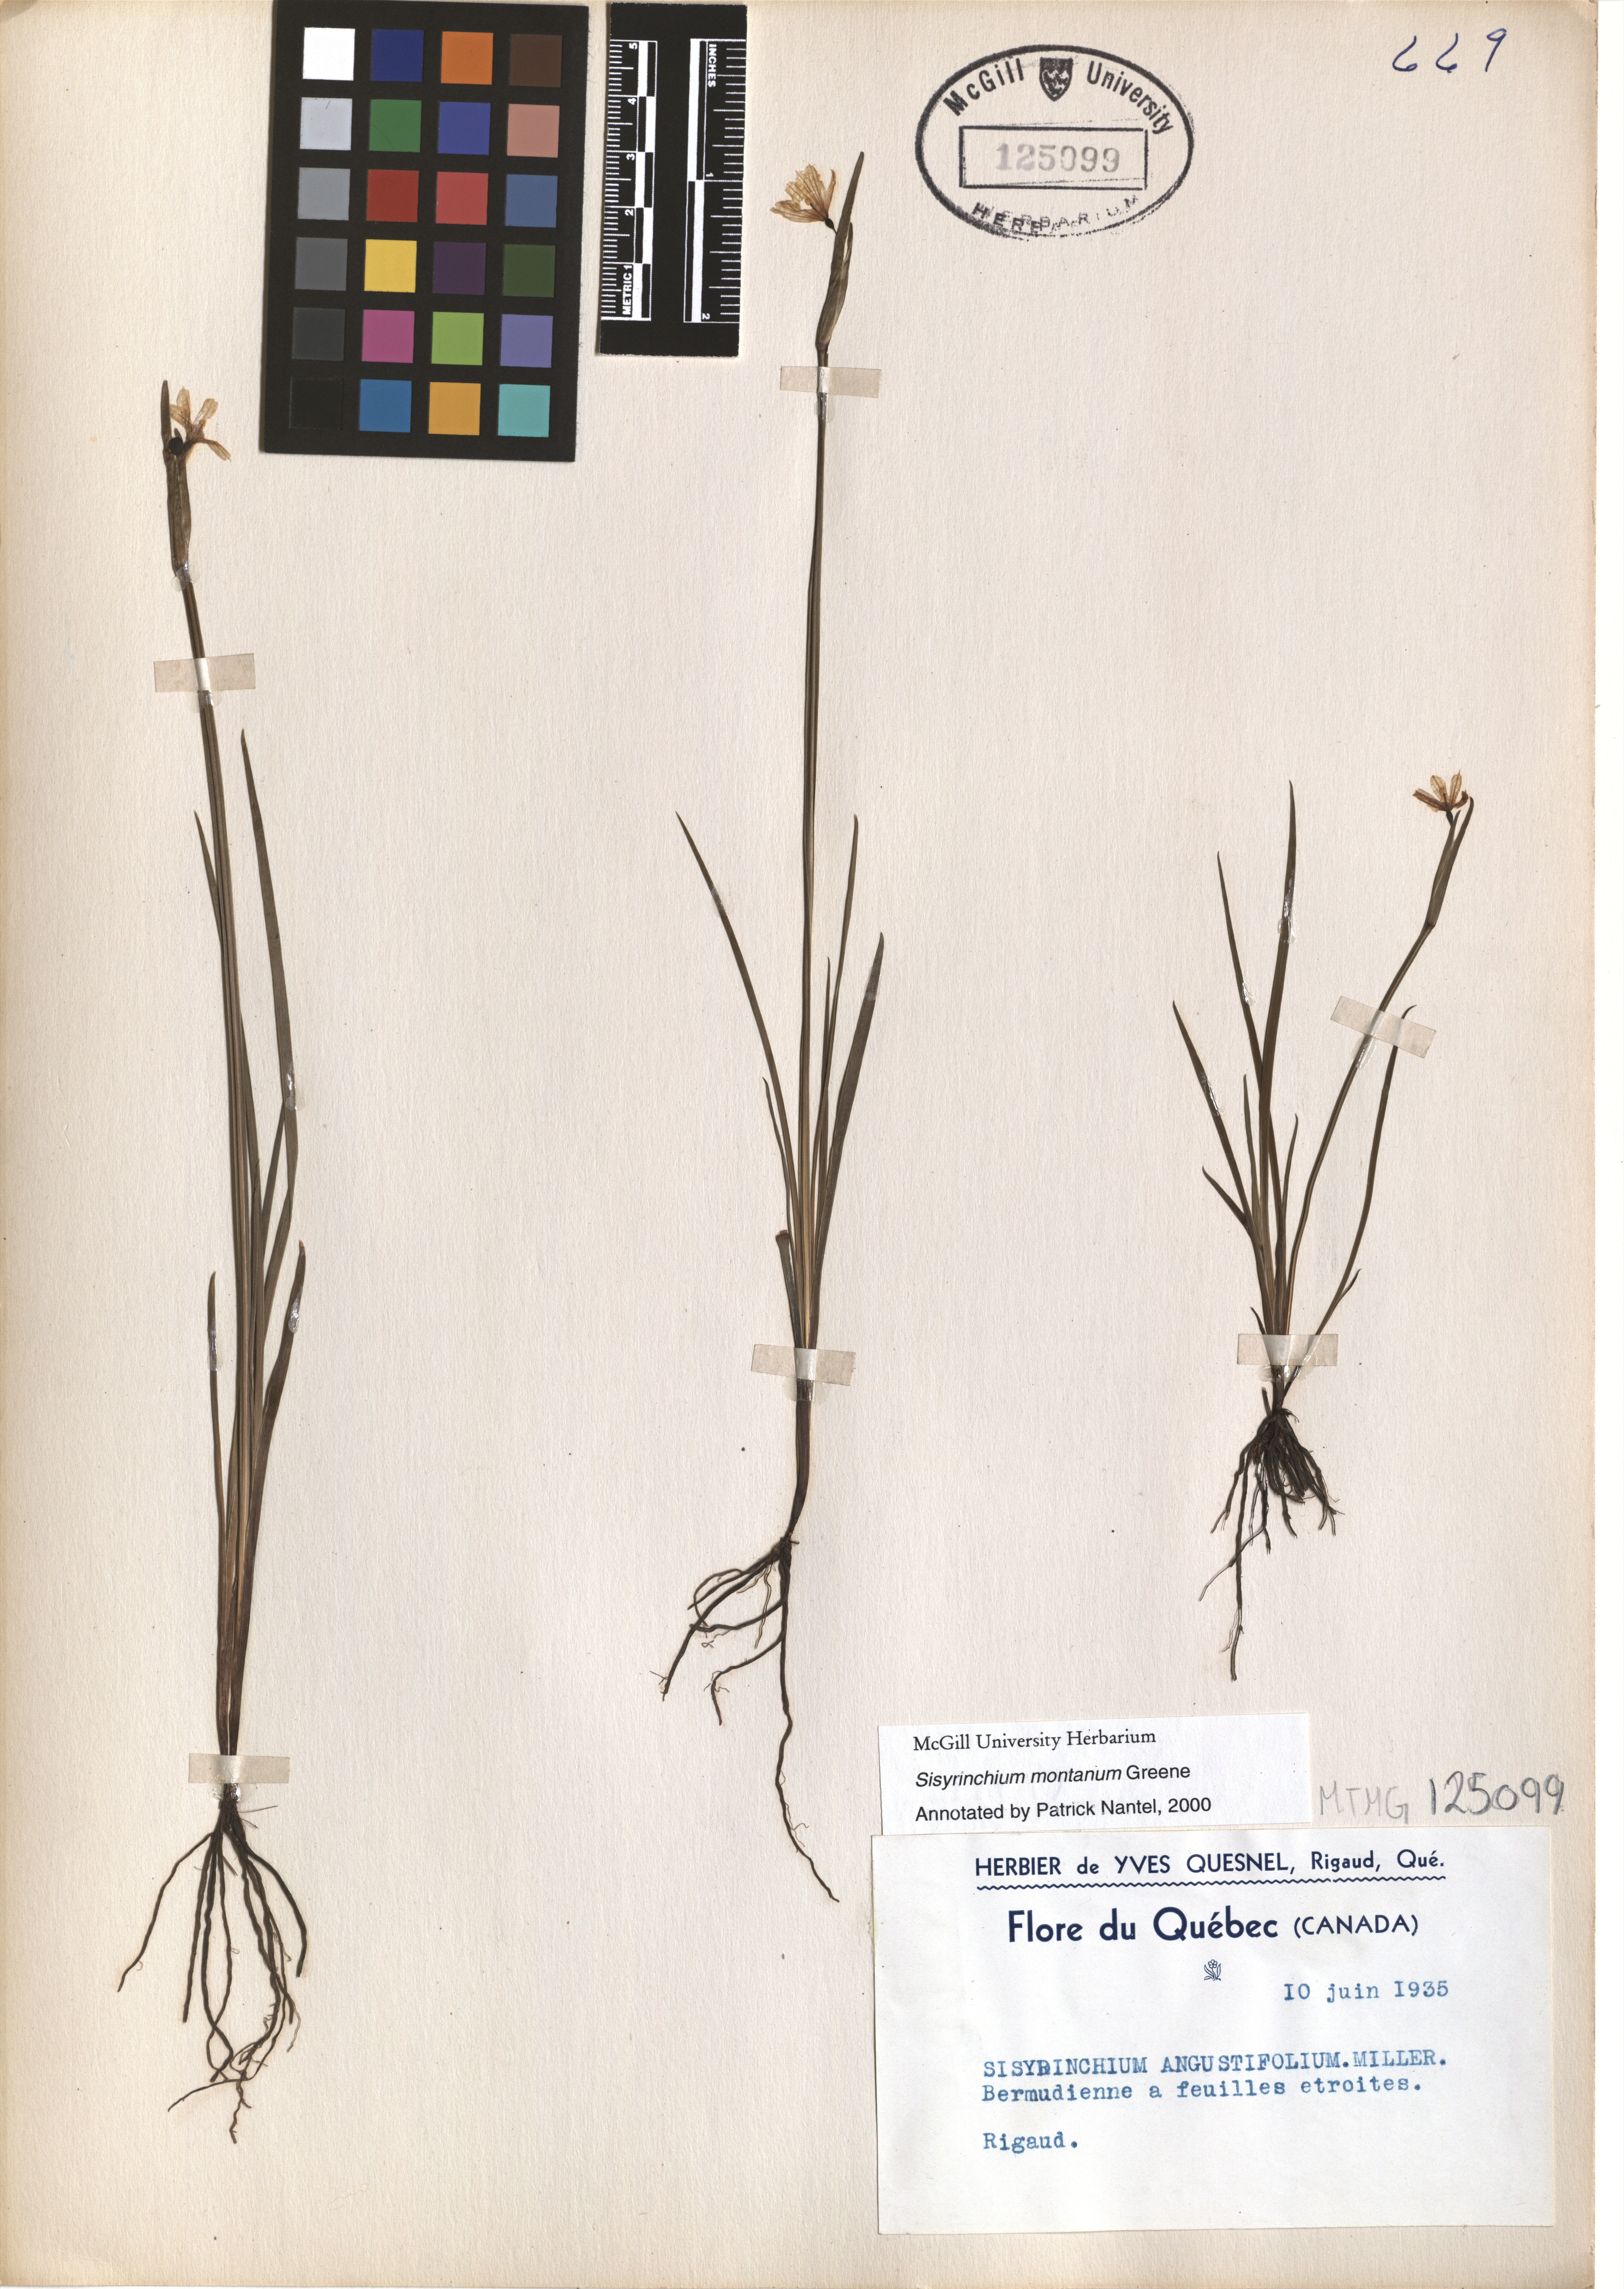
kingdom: Plantae
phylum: Tracheophyta
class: Liliopsida
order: Asparagales
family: Iridaceae
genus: Sisyrinchium
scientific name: Sisyrinchium montanum
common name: American blue-eyed-grass
